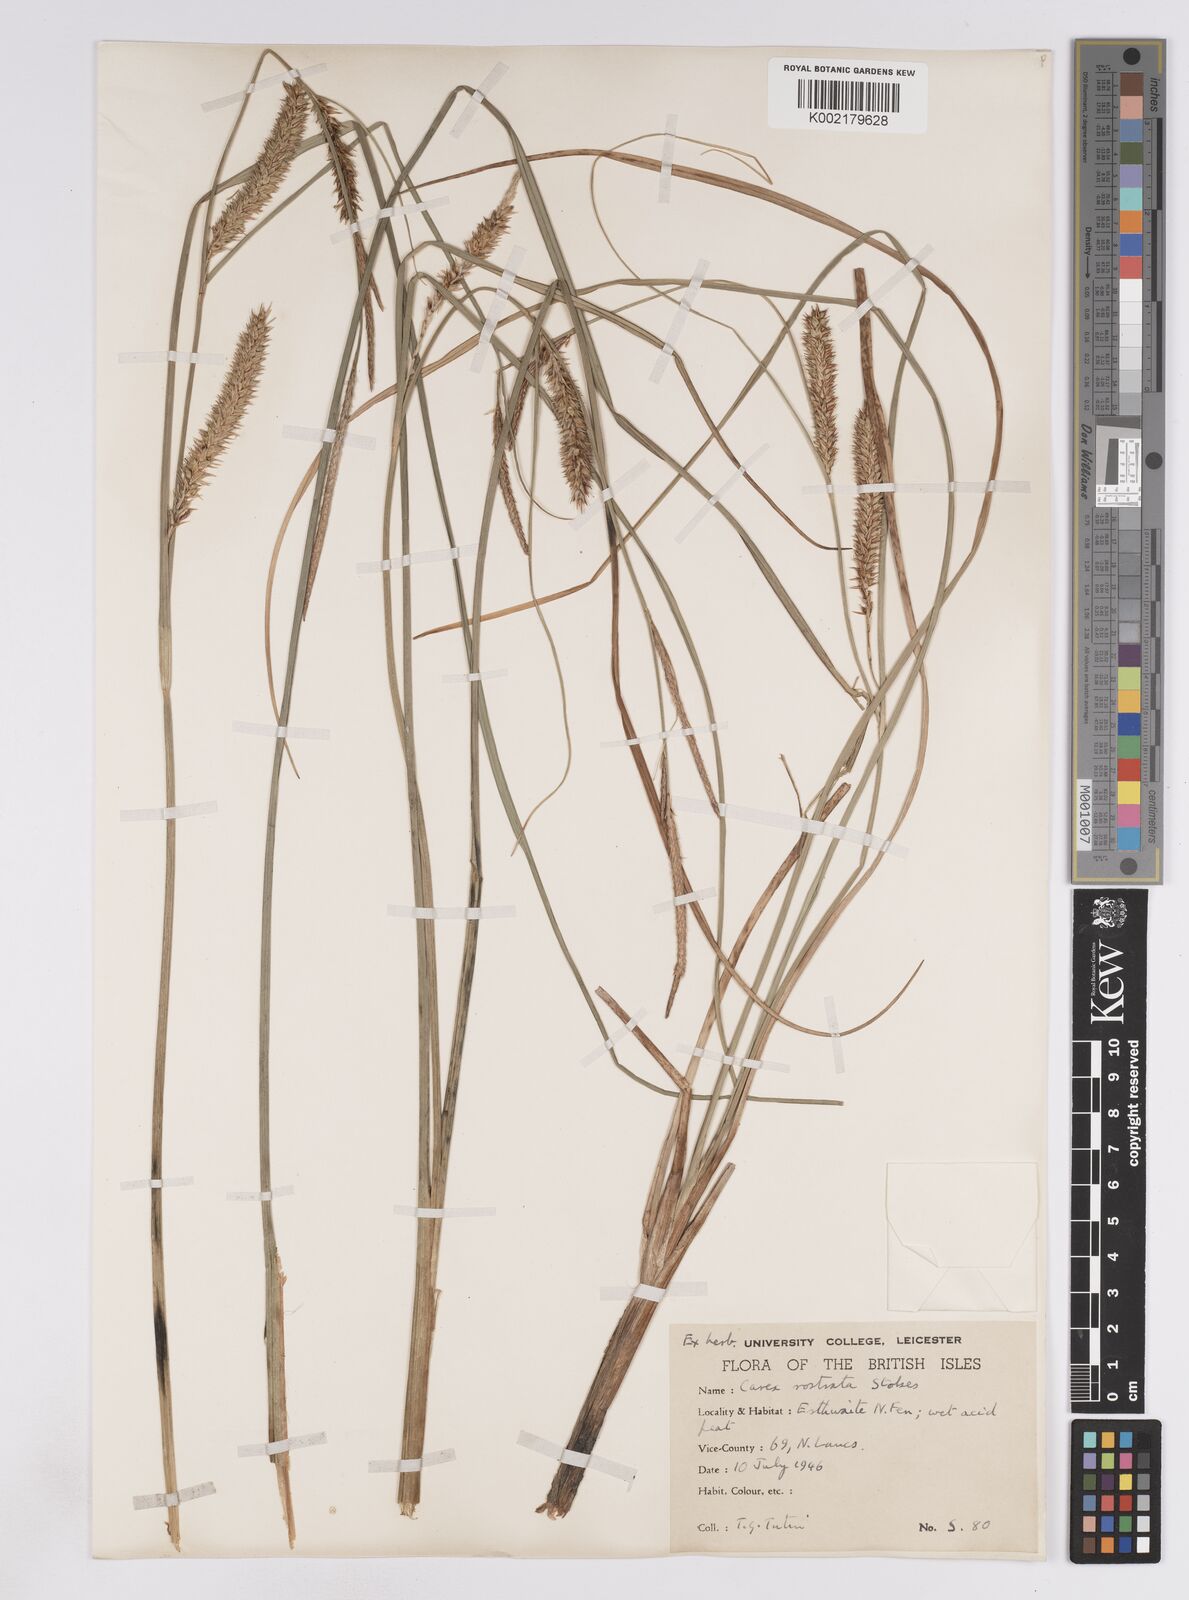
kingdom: Plantae
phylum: Tracheophyta
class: Liliopsida
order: Poales
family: Cyperaceae
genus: Carex
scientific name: Carex rostrata
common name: Bottle sedge
